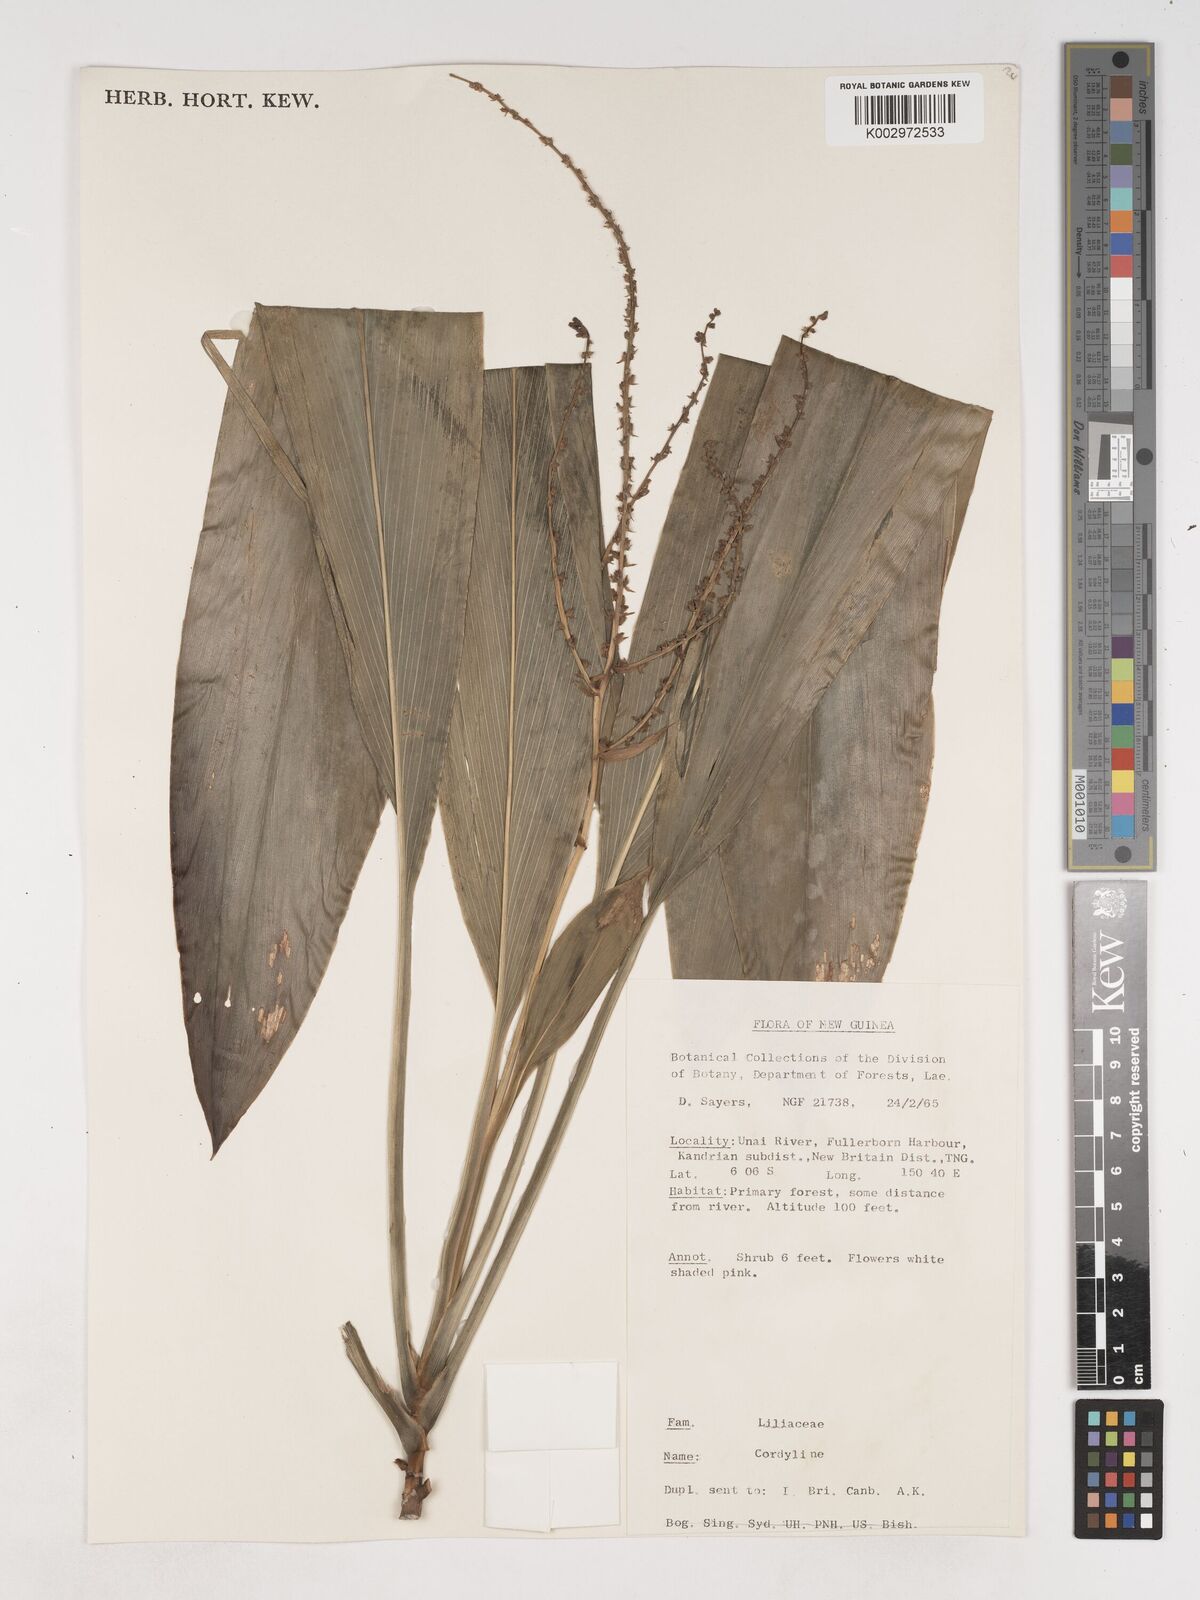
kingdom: Plantae
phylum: Tracheophyta
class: Liliopsida
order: Asparagales
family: Asparagaceae
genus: Cordyline
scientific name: Cordyline
